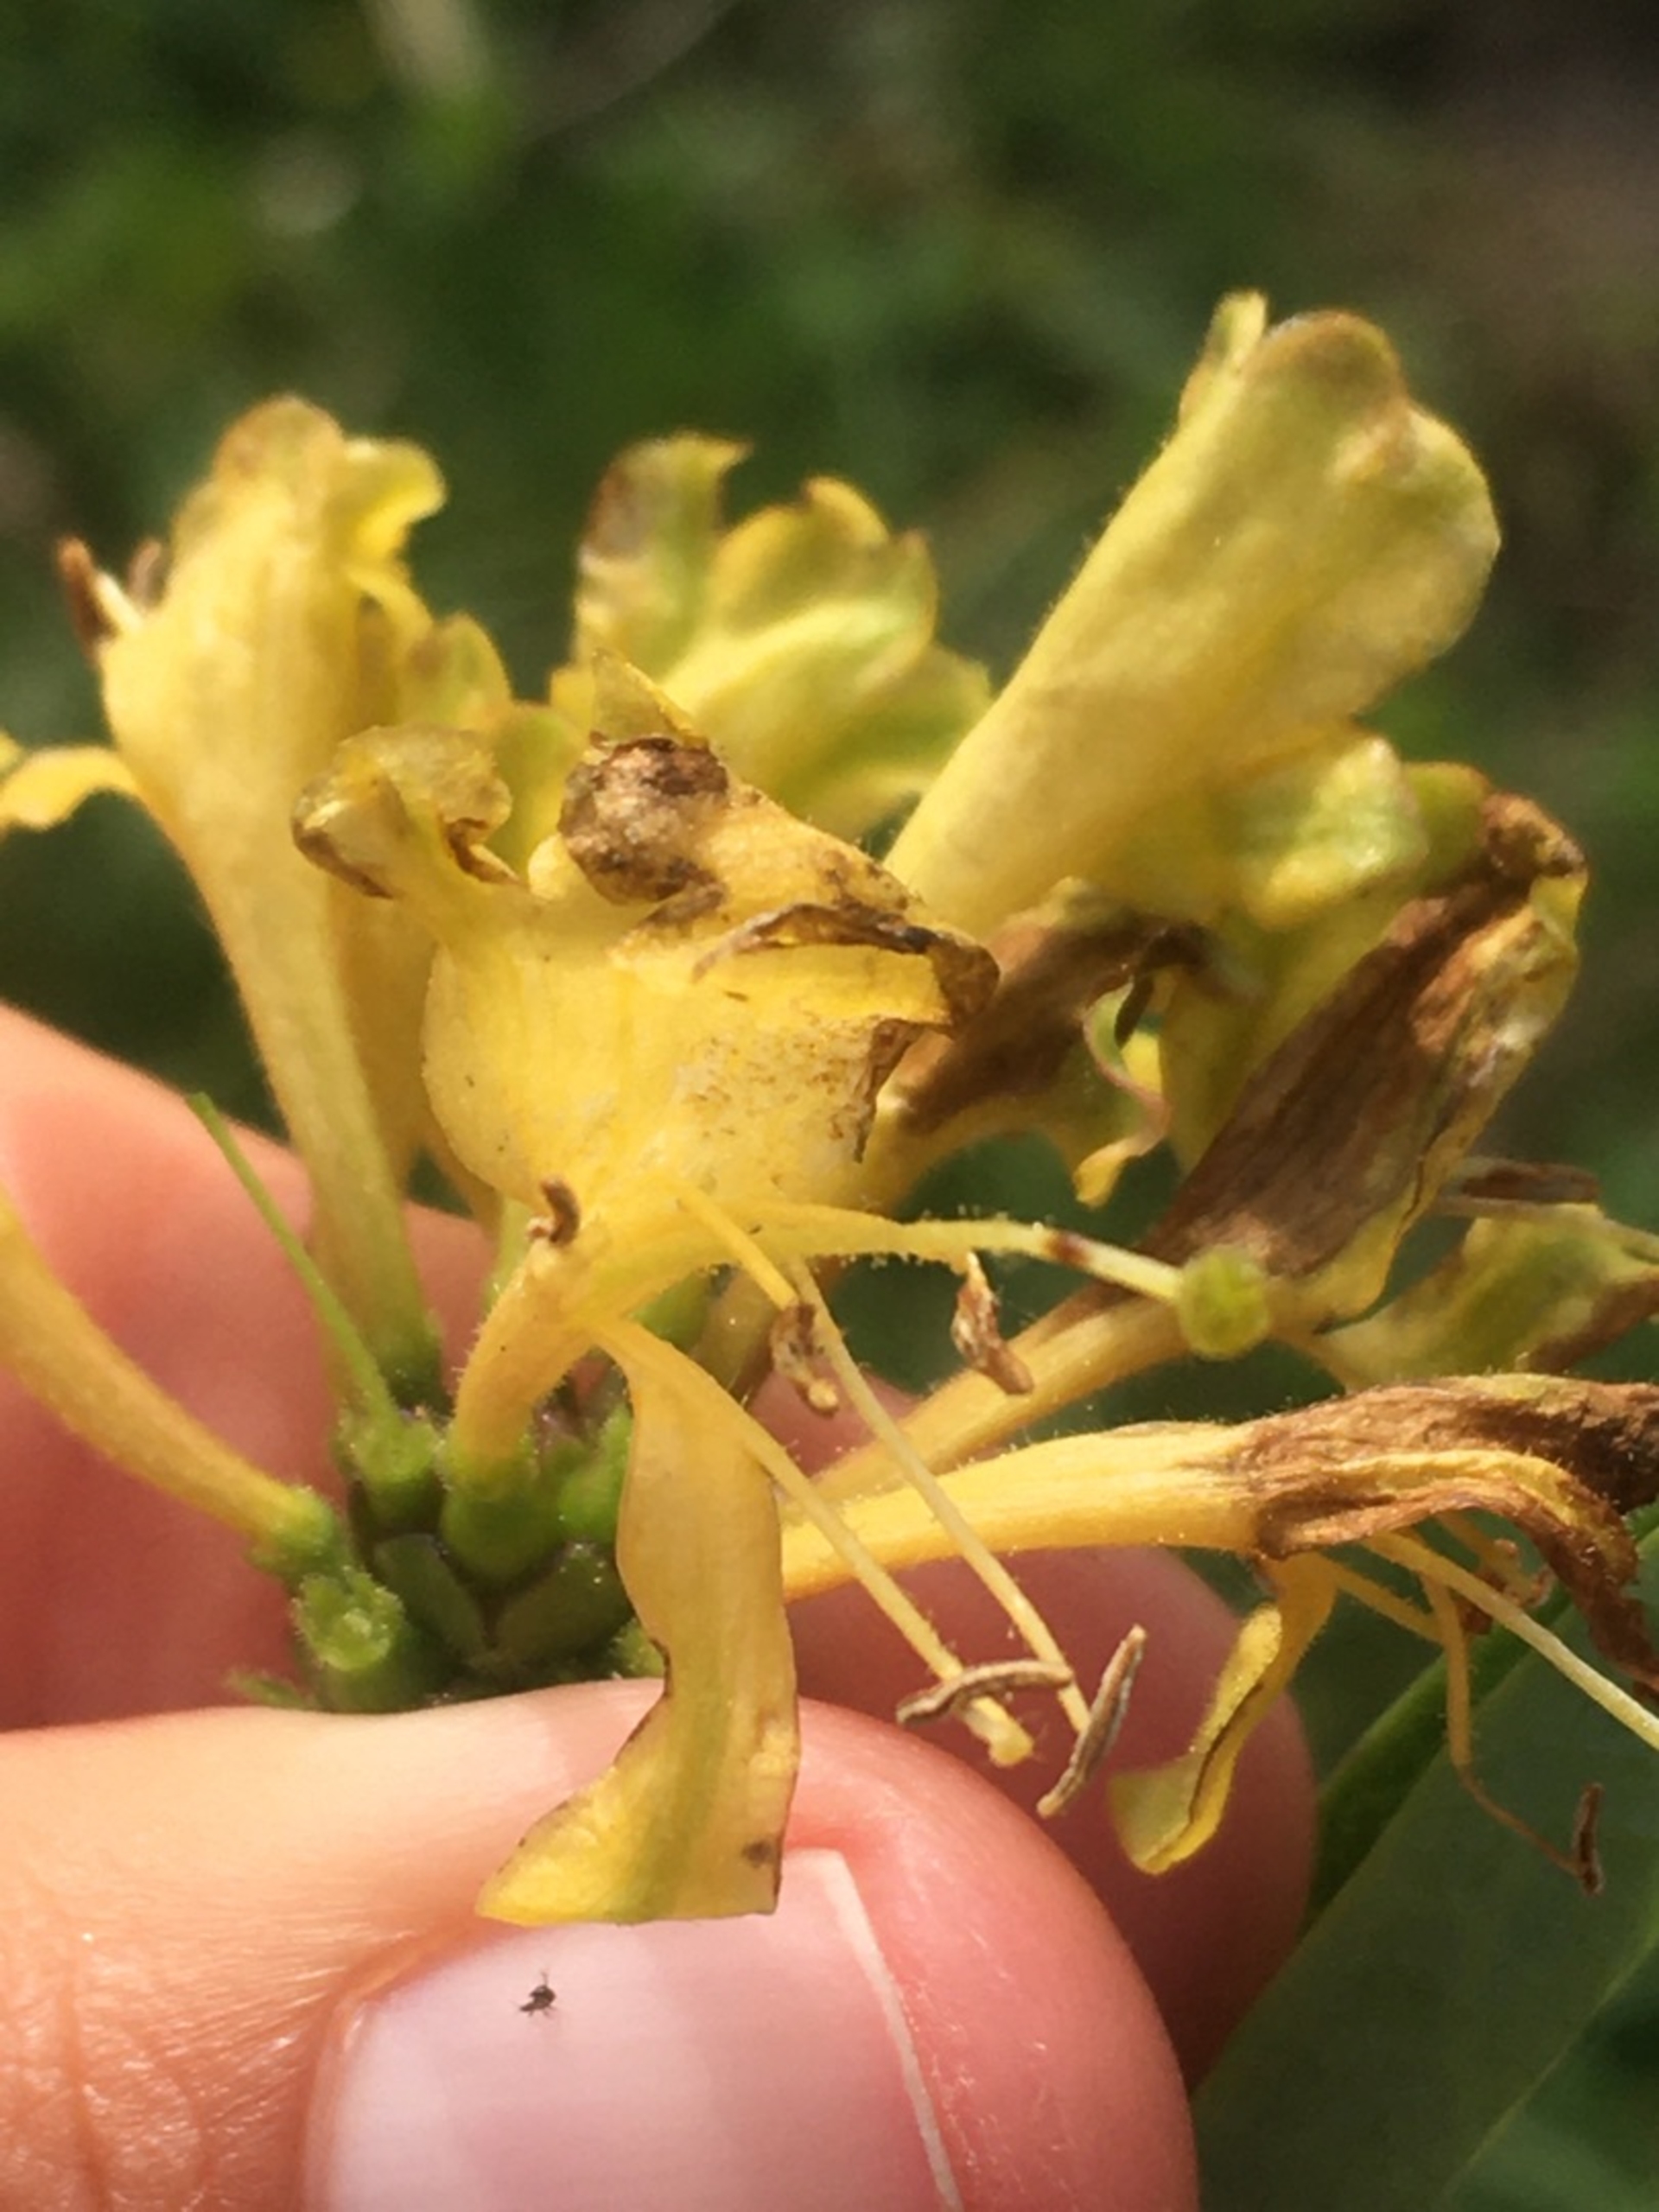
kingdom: Plantae
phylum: Tracheophyta
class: Magnoliopsida
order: Dipsacales
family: Caprifoliaceae
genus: Lonicera
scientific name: Lonicera periclymenum
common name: Almindelig gedeblad
